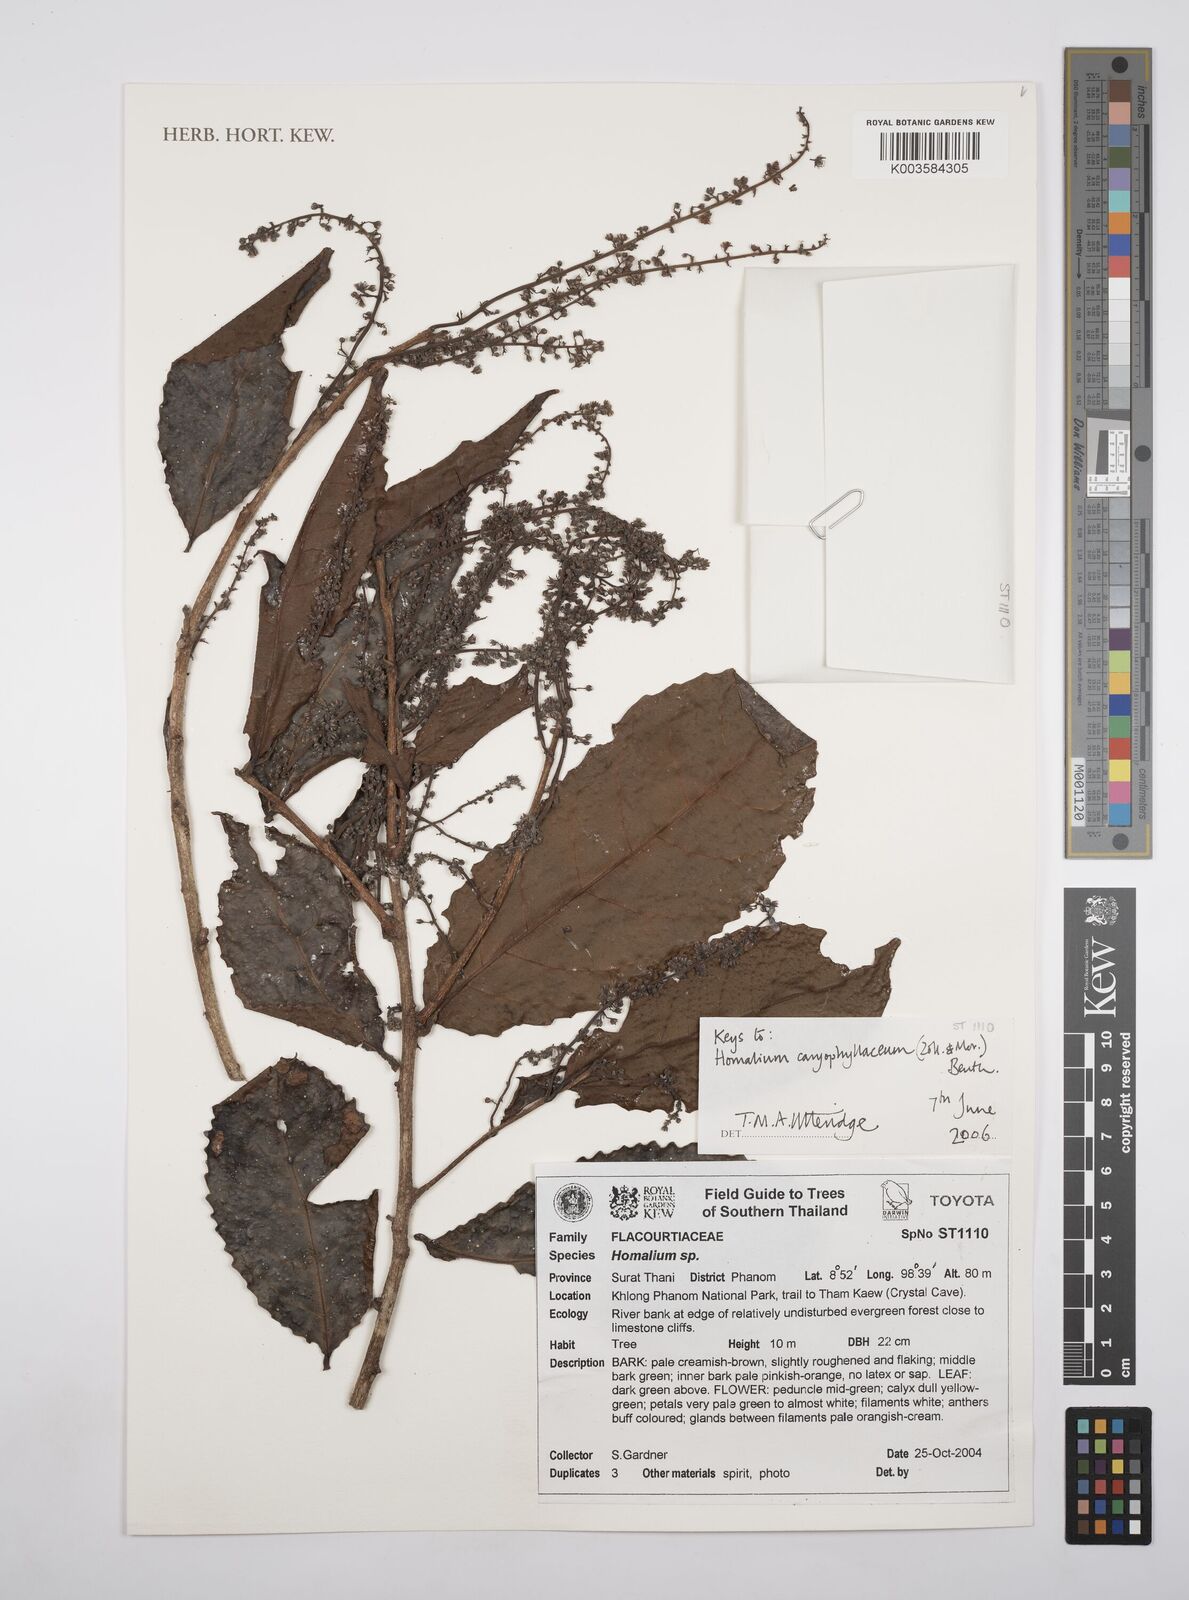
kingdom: Plantae
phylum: Tracheophyta
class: Magnoliopsida
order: Malpighiales
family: Salicaceae
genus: Homalium
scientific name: Homalium caryophyllaceum
